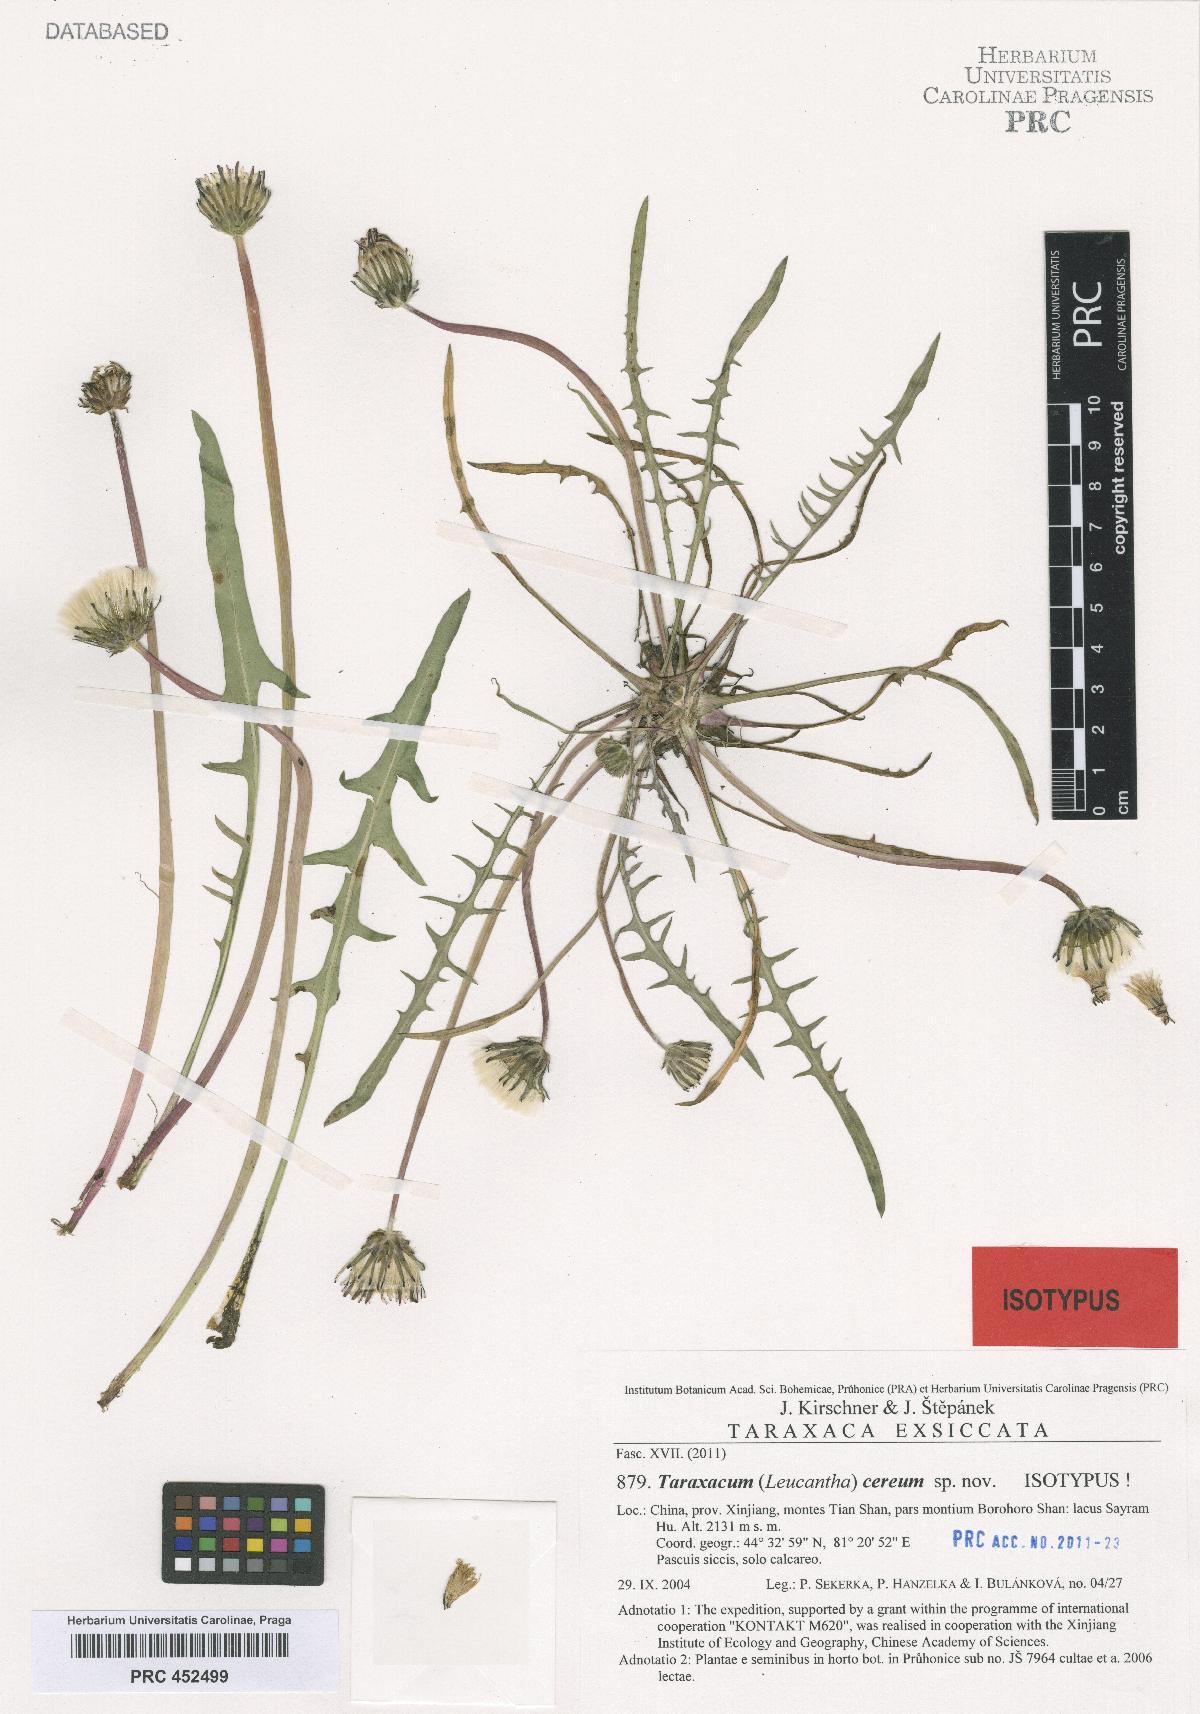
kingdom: Plantae
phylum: Tracheophyta
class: Magnoliopsida
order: Asterales
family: Asteraceae
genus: Taraxacum
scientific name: Taraxacum cereum
